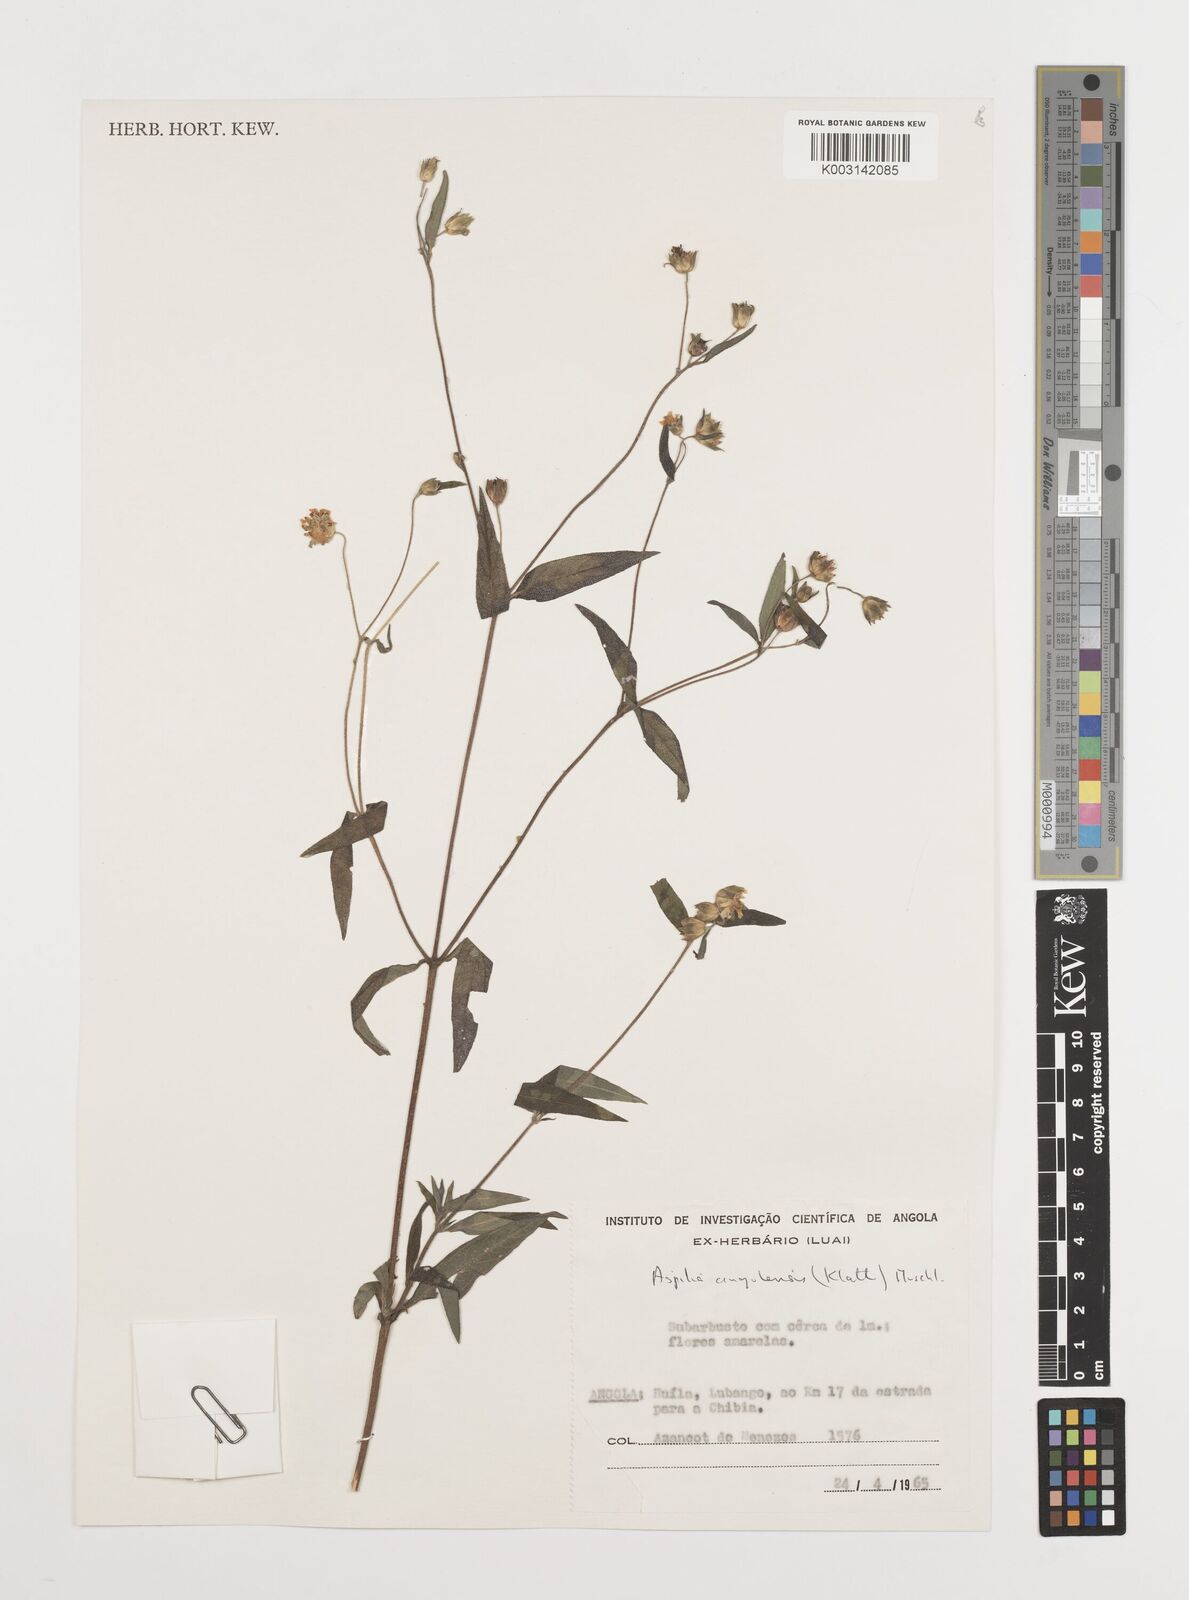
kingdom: Plantae
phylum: Tracheophyta
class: Magnoliopsida
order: Asterales
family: Asteraceae
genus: Aspilia
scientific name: Aspilia angolensis
